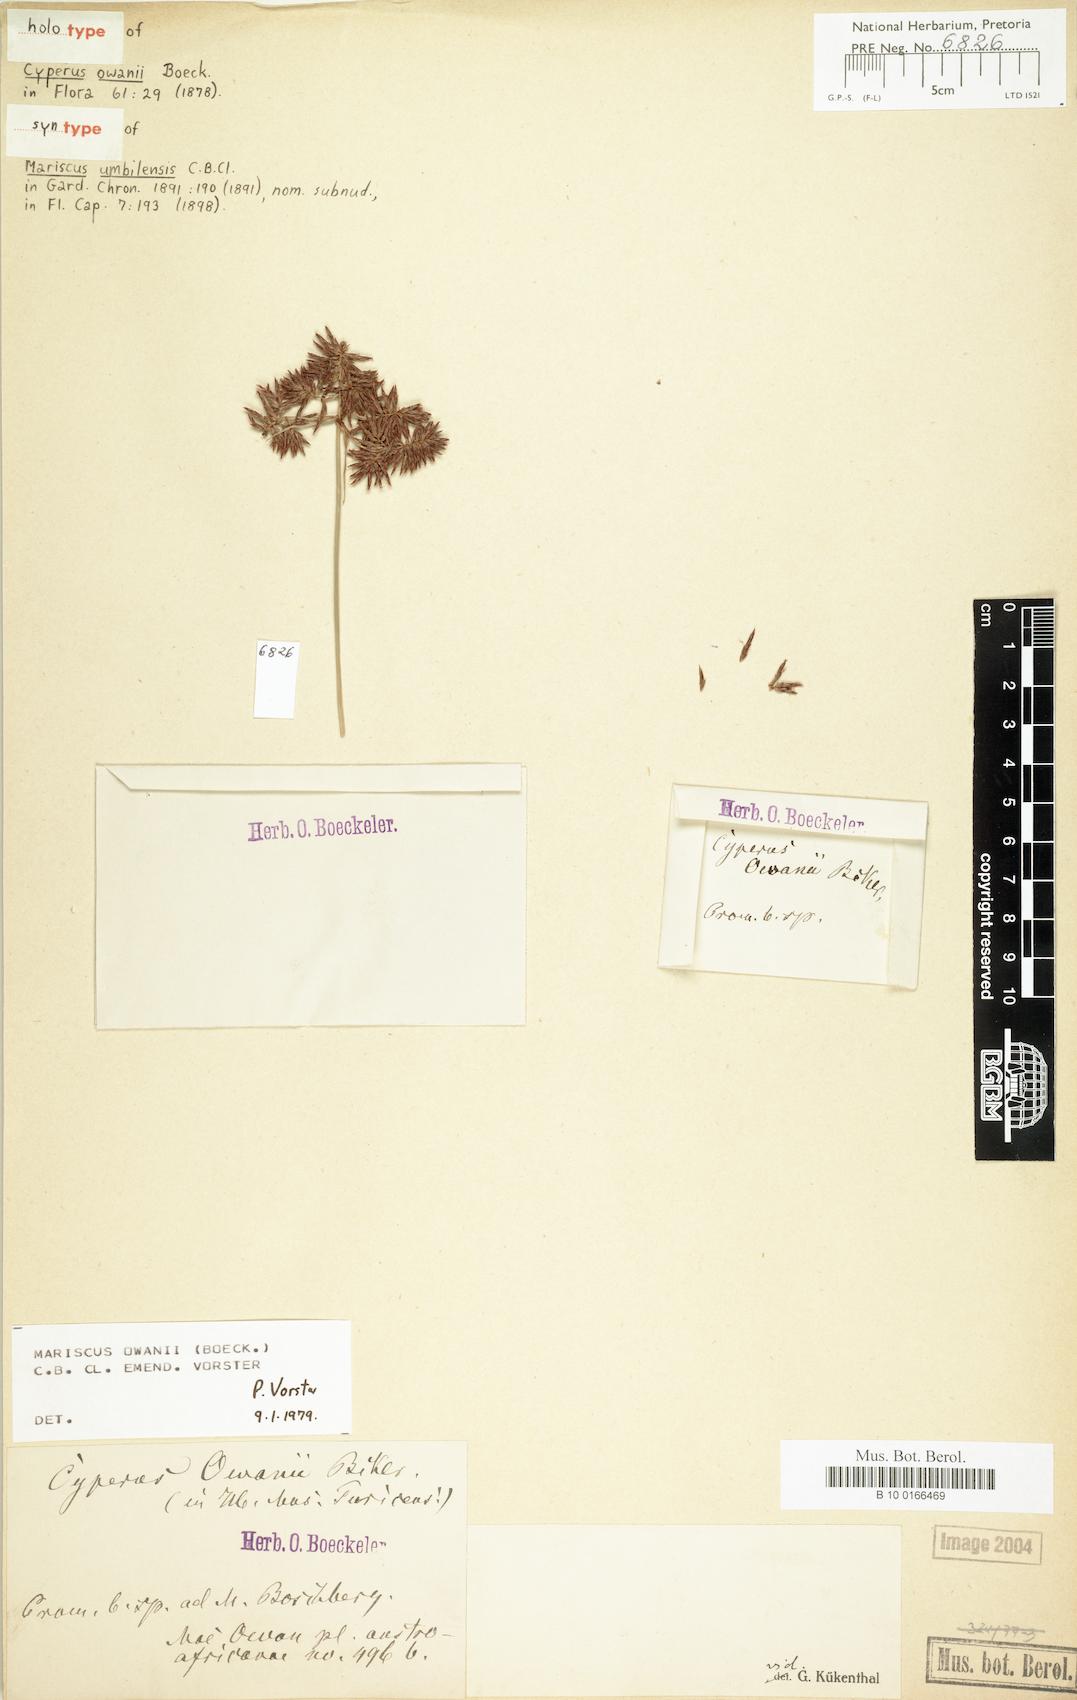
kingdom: Plantae
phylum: Tracheophyta
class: Liliopsida
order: Poales
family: Cyperaceae
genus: Cyperus
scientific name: Cyperus owanii
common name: Owan's flatsedge
